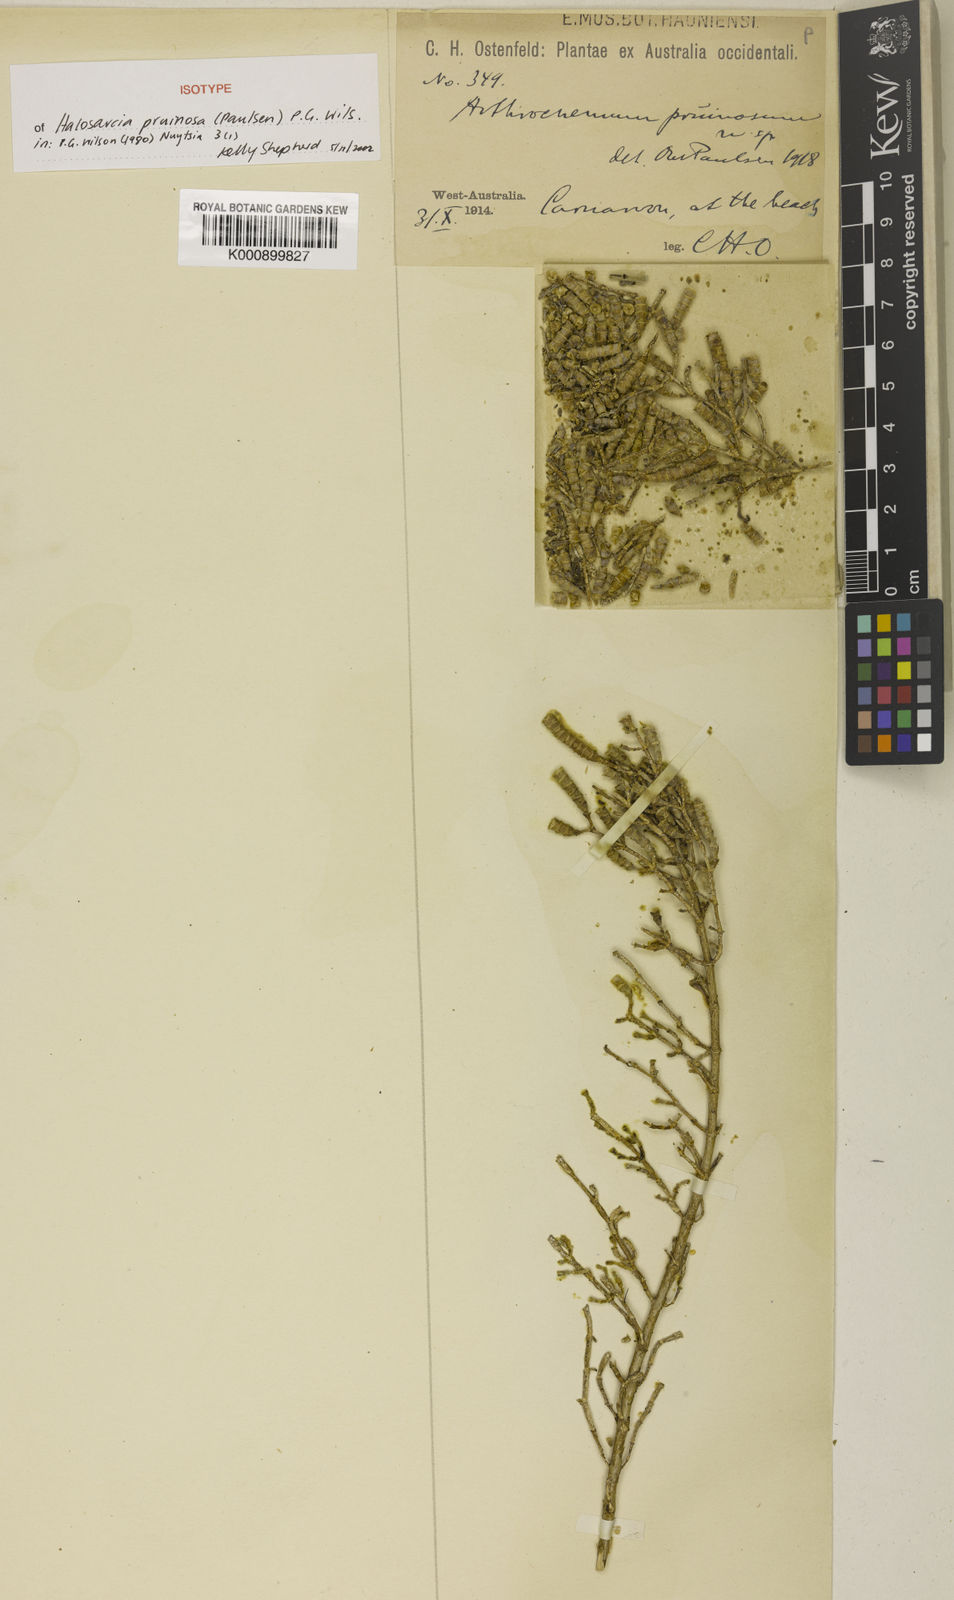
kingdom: Plantae
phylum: Tracheophyta
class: Magnoliopsida
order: Caryophyllales
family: Amaranthaceae
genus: Tecticornia
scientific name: Tecticornia pruinosa
